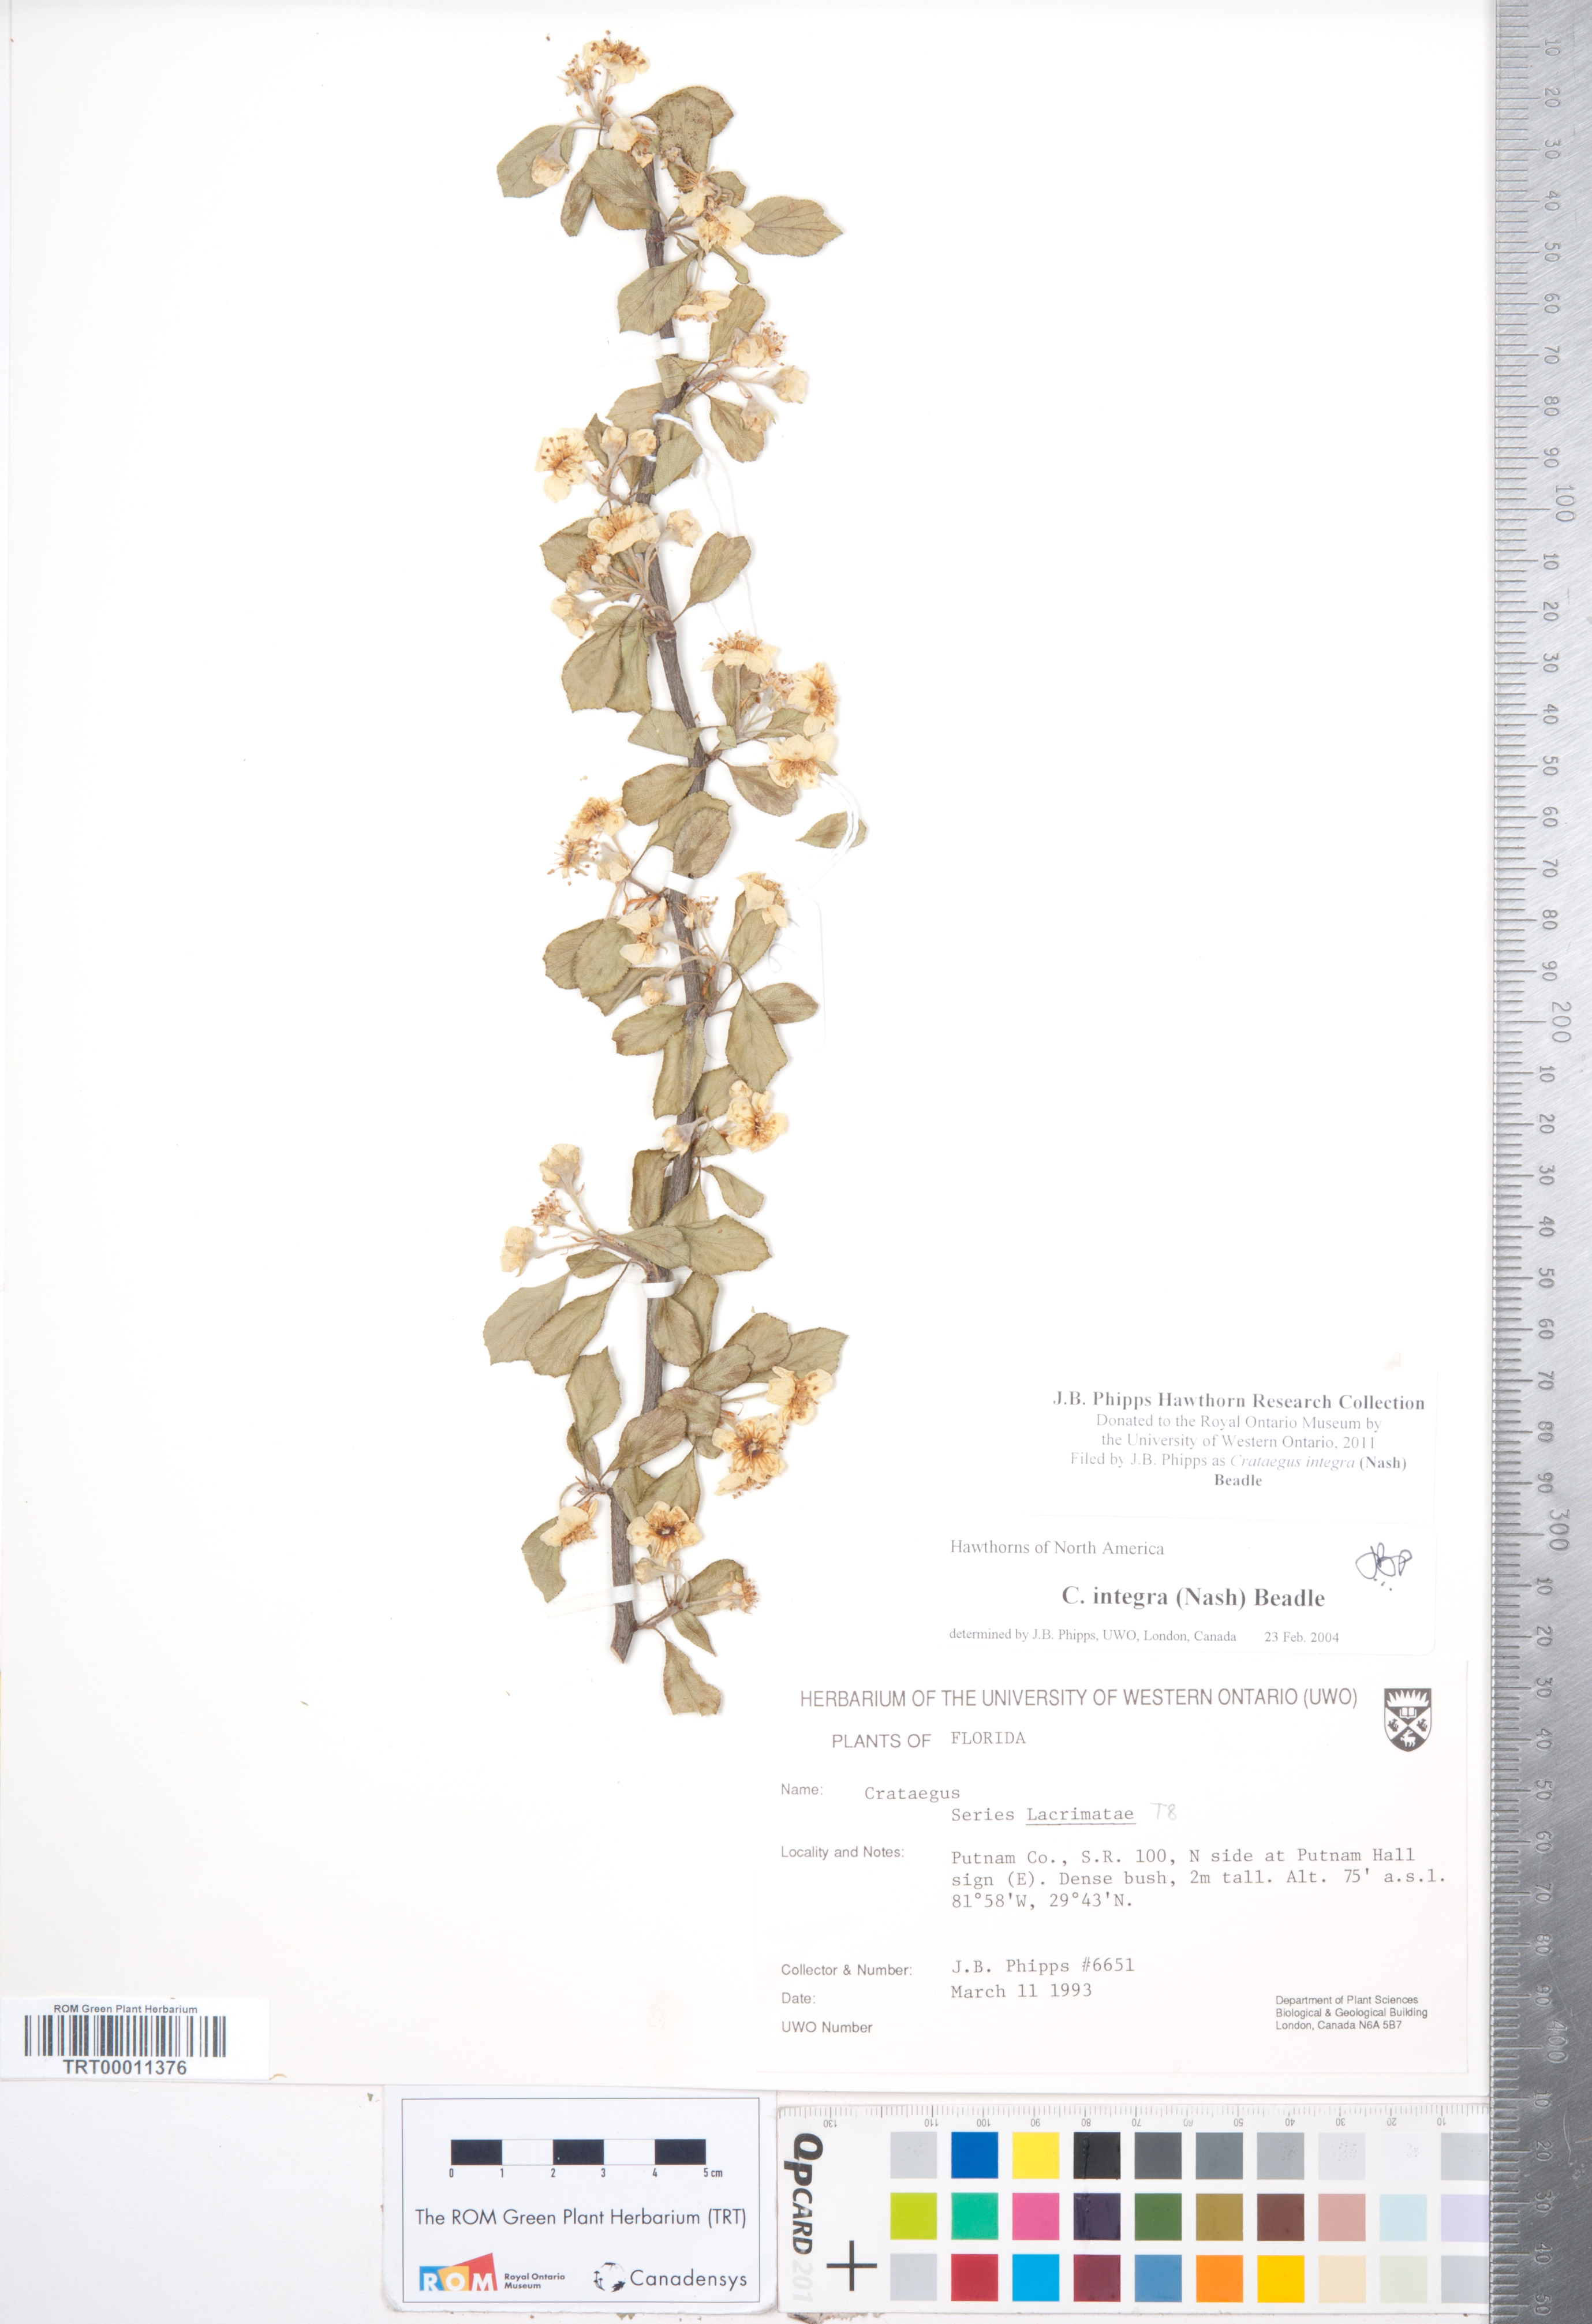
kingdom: Plantae
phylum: Tracheophyta
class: Magnoliopsida
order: Rosales
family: Rosaceae
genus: Crataegus
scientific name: Crataegus lassa
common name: Florida hawthorn
